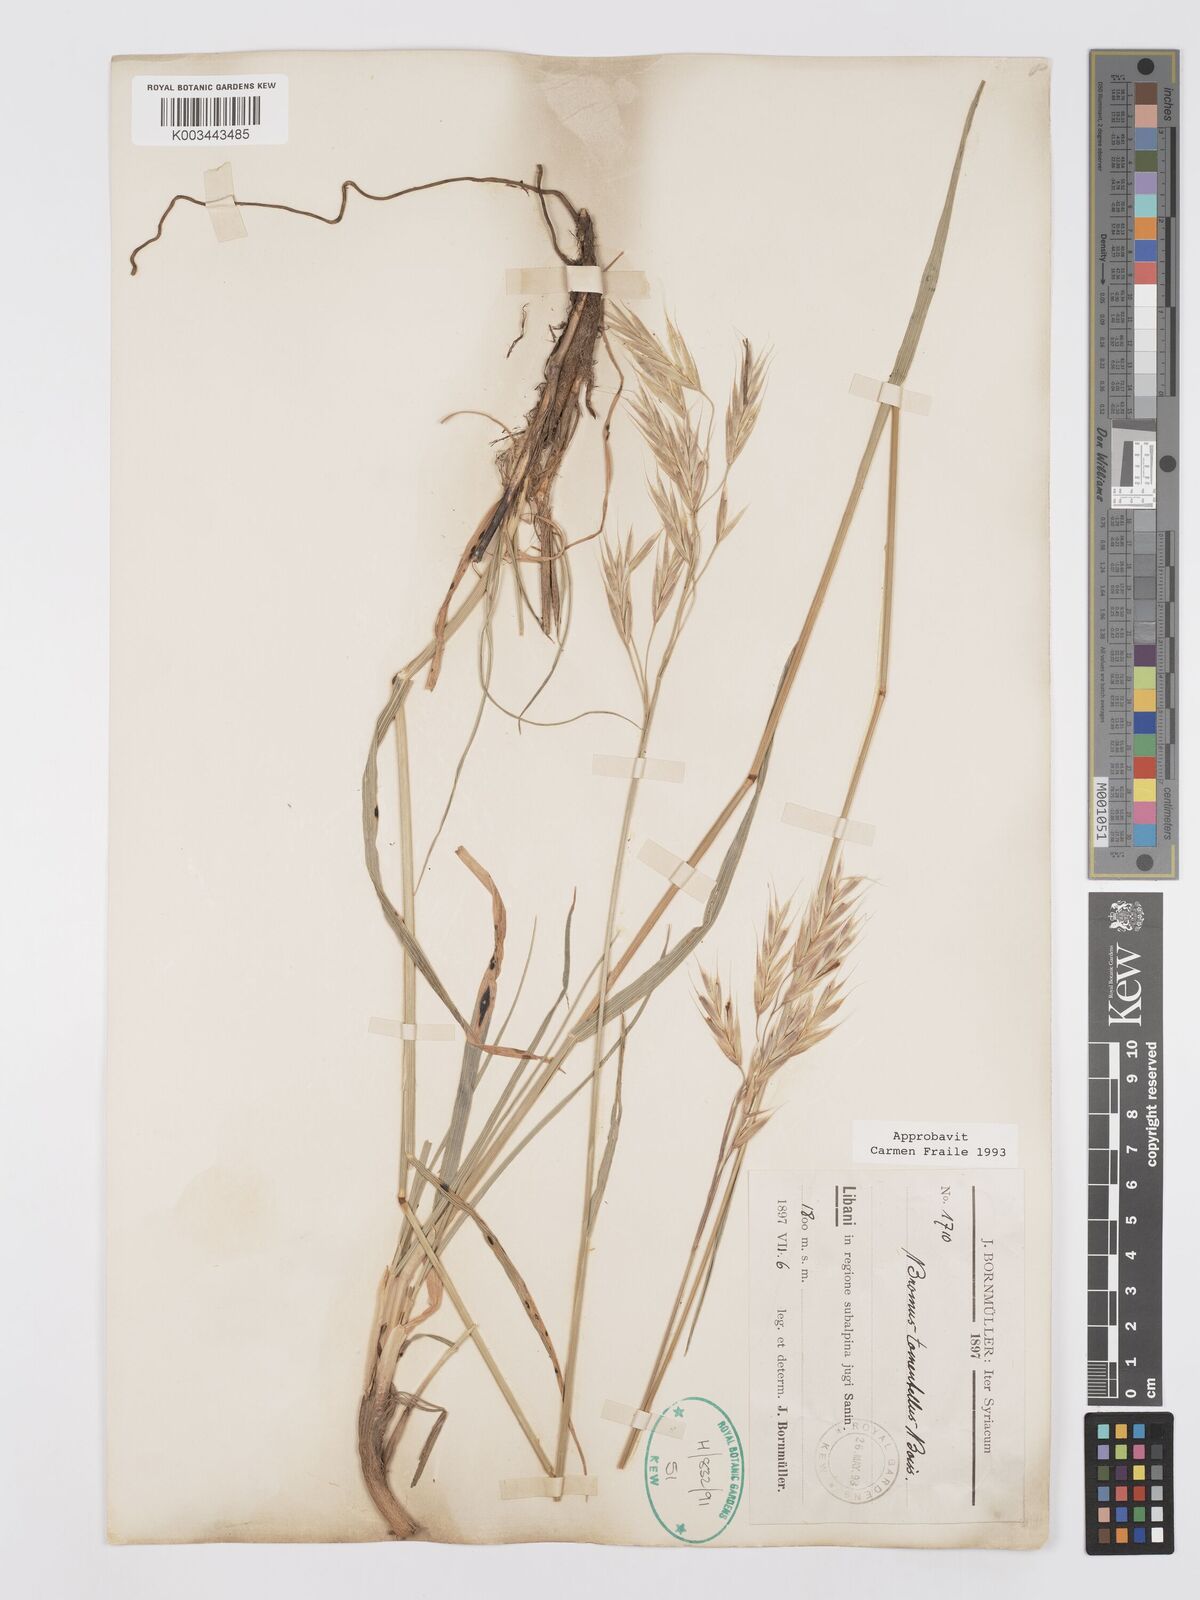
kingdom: Plantae
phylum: Tracheophyta
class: Liliopsida
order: Poales
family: Poaceae
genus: Bromus
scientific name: Bromus tomentellus
